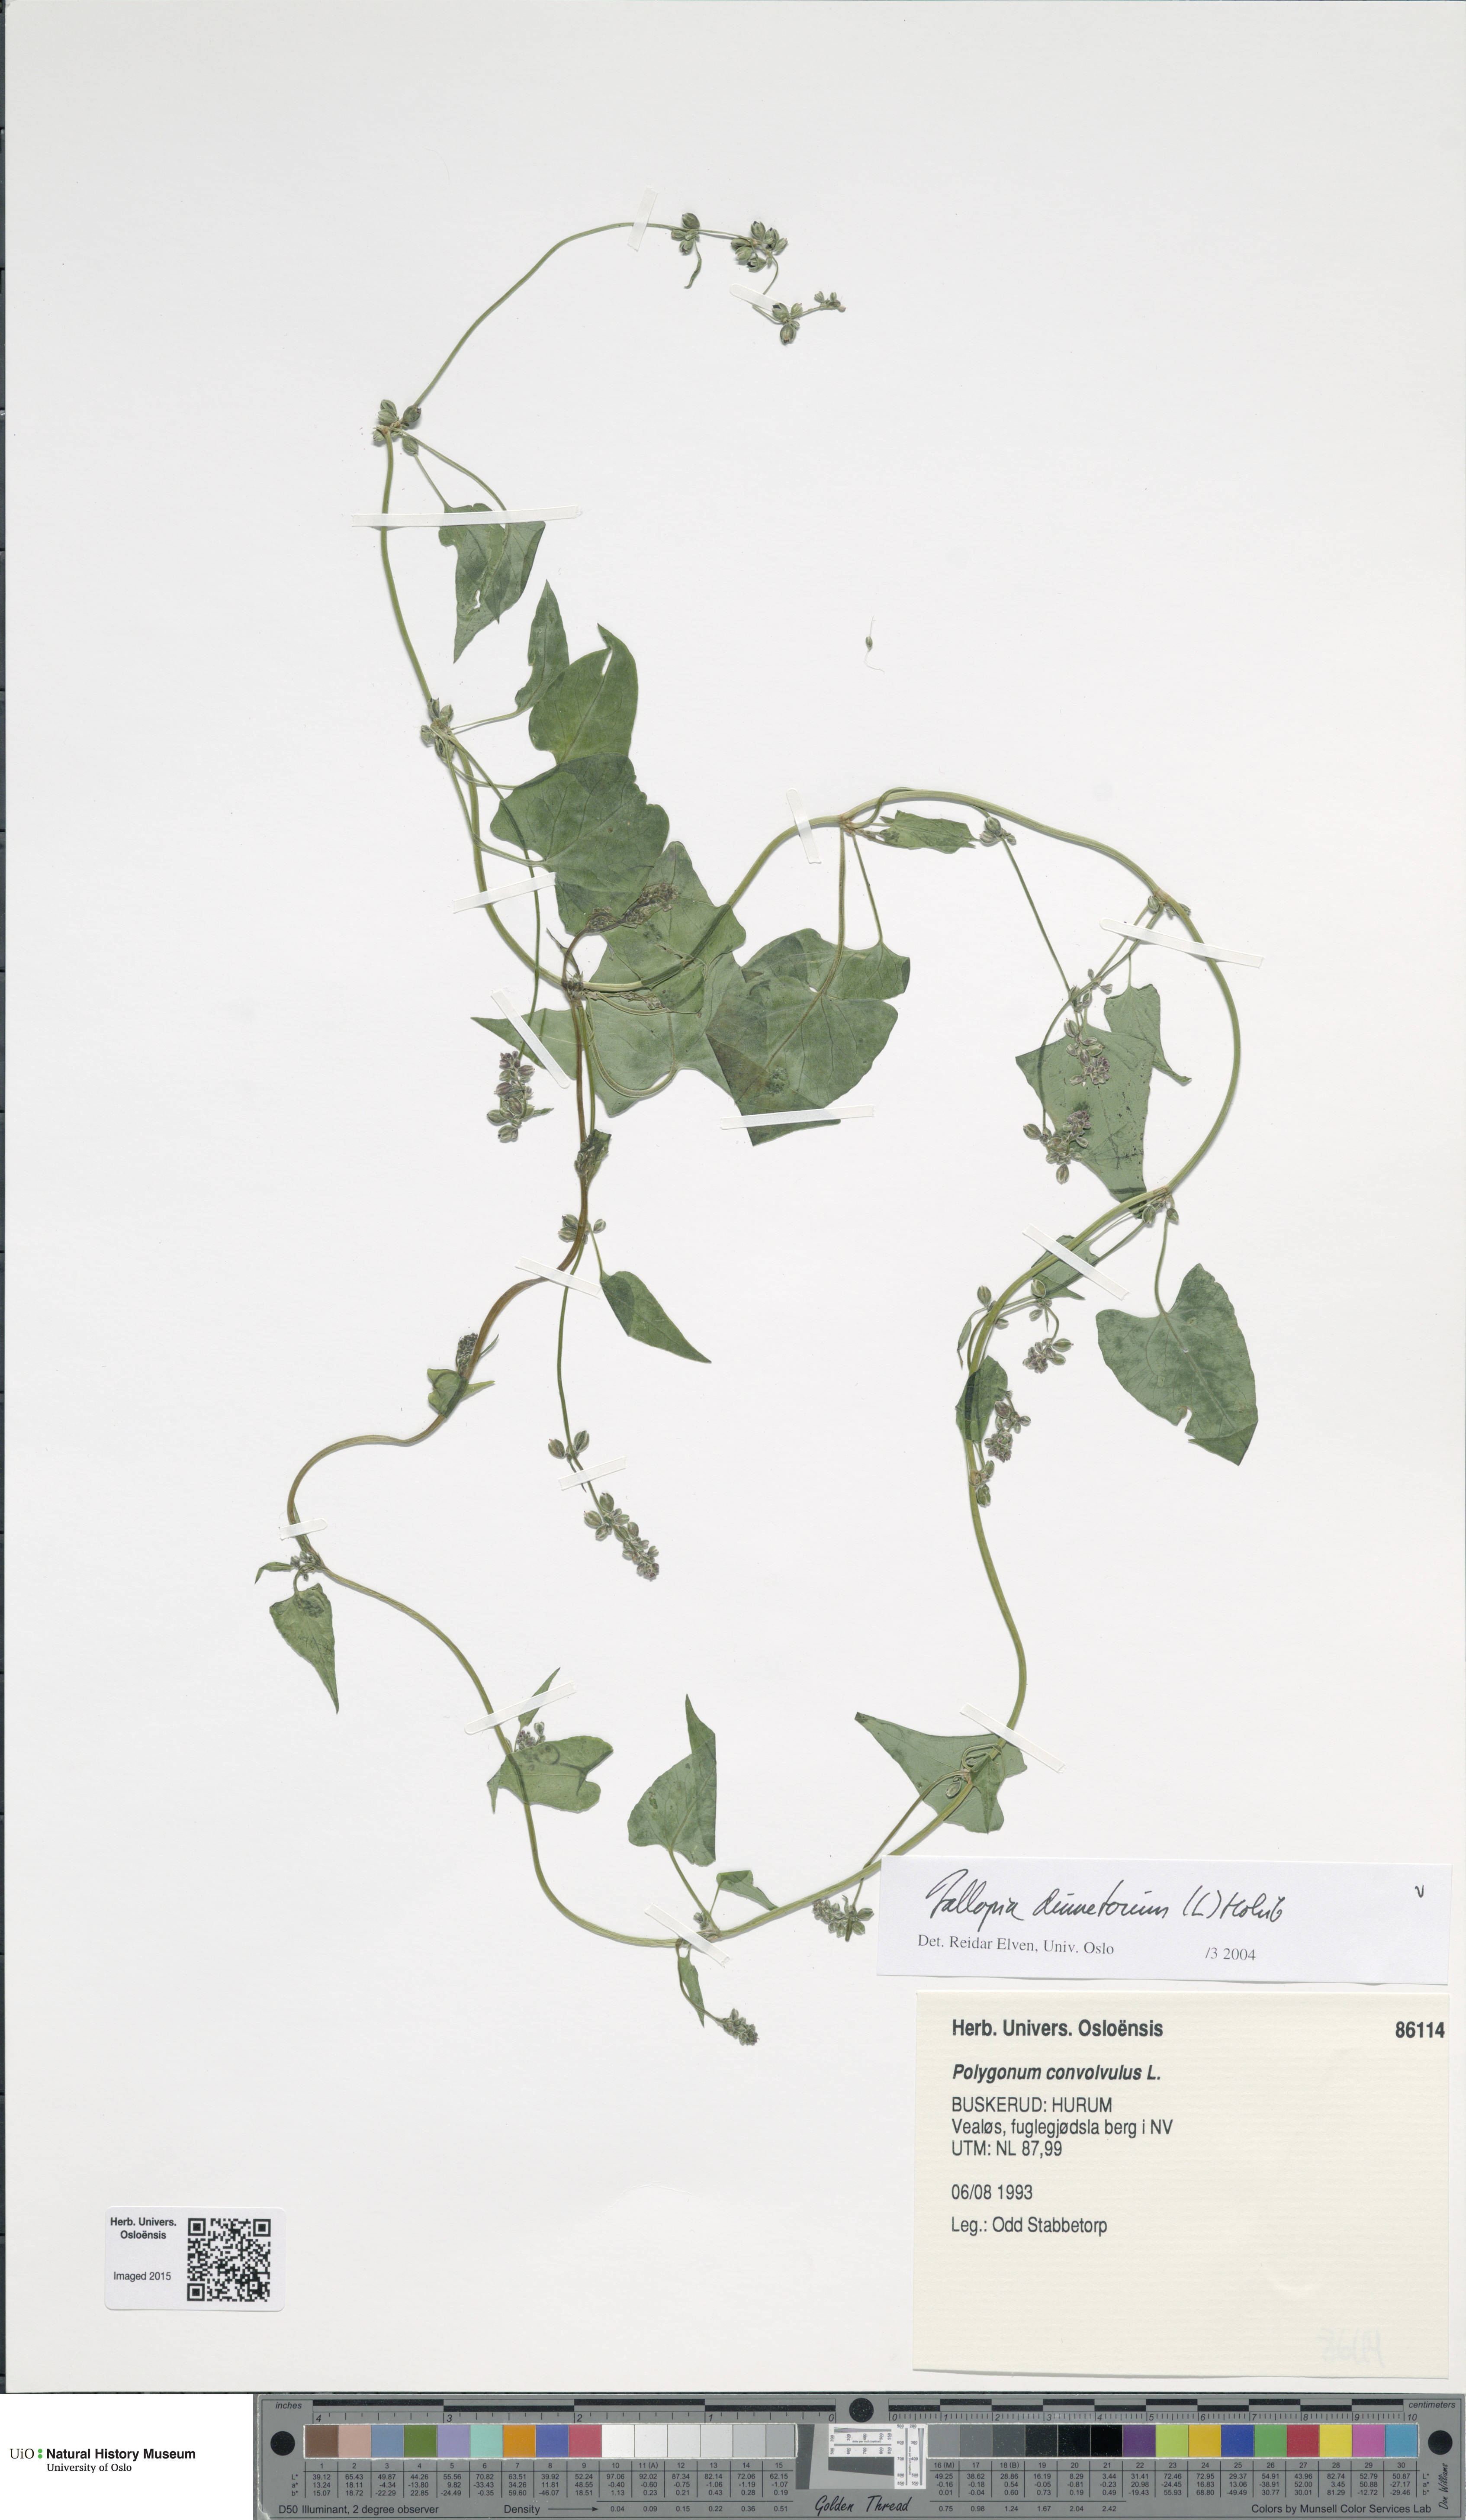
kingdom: Plantae
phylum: Tracheophyta
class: Magnoliopsida
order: Caryophyllales
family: Polygonaceae
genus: Fallopia
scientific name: Fallopia dumetorum
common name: Copse-bindweed
